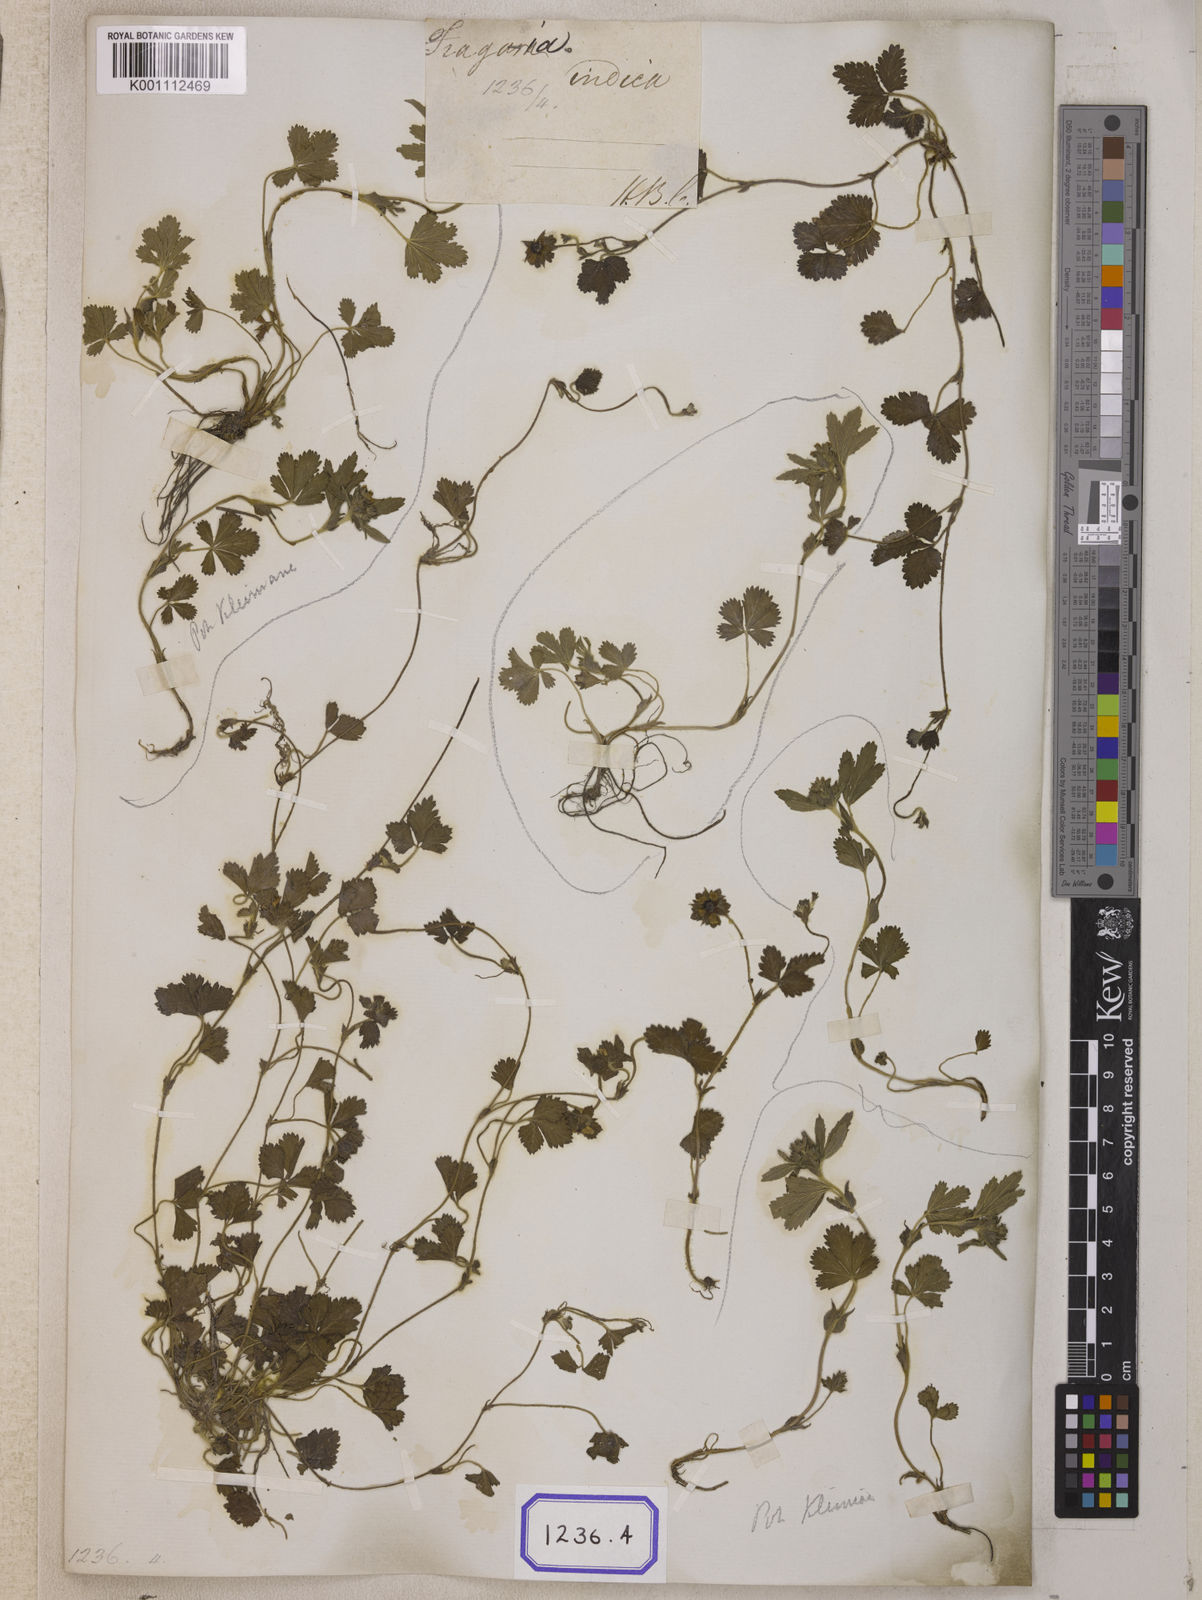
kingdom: Plantae
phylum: Tracheophyta
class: Magnoliopsida
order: Rosales
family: Rosaceae
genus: Potentilla
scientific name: Potentilla indica
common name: Yellow-flowered strawberry
